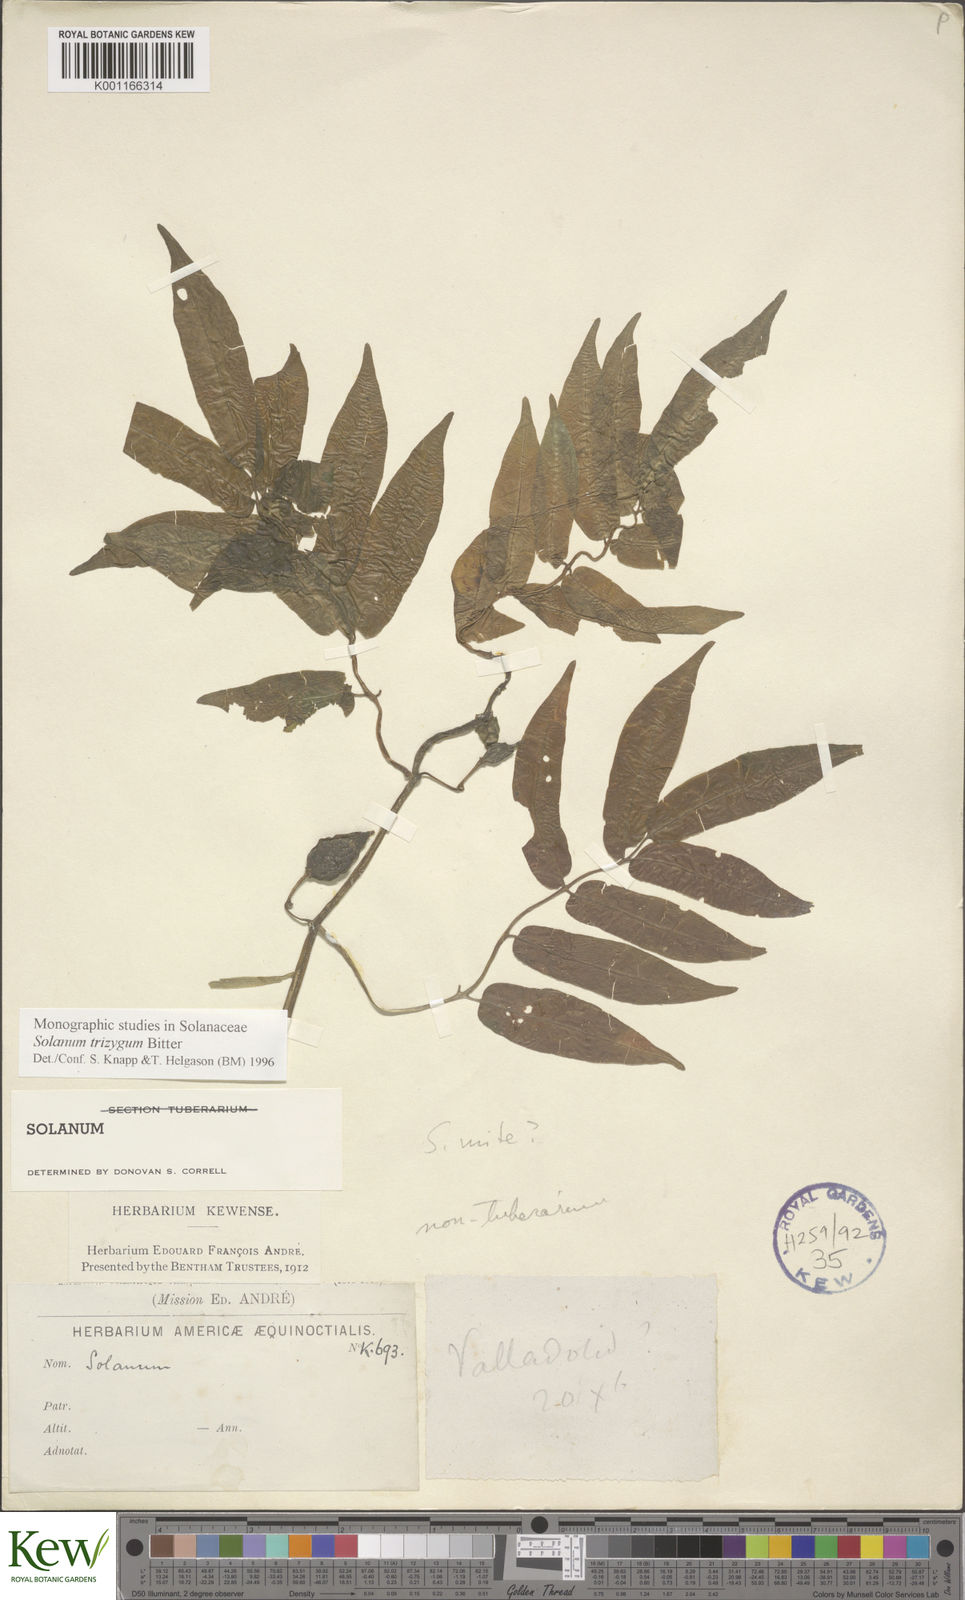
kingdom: Plantae
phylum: Tracheophyta
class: Magnoliopsida
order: Solanales
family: Solanaceae
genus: Solanum
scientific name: Solanum trizygum
